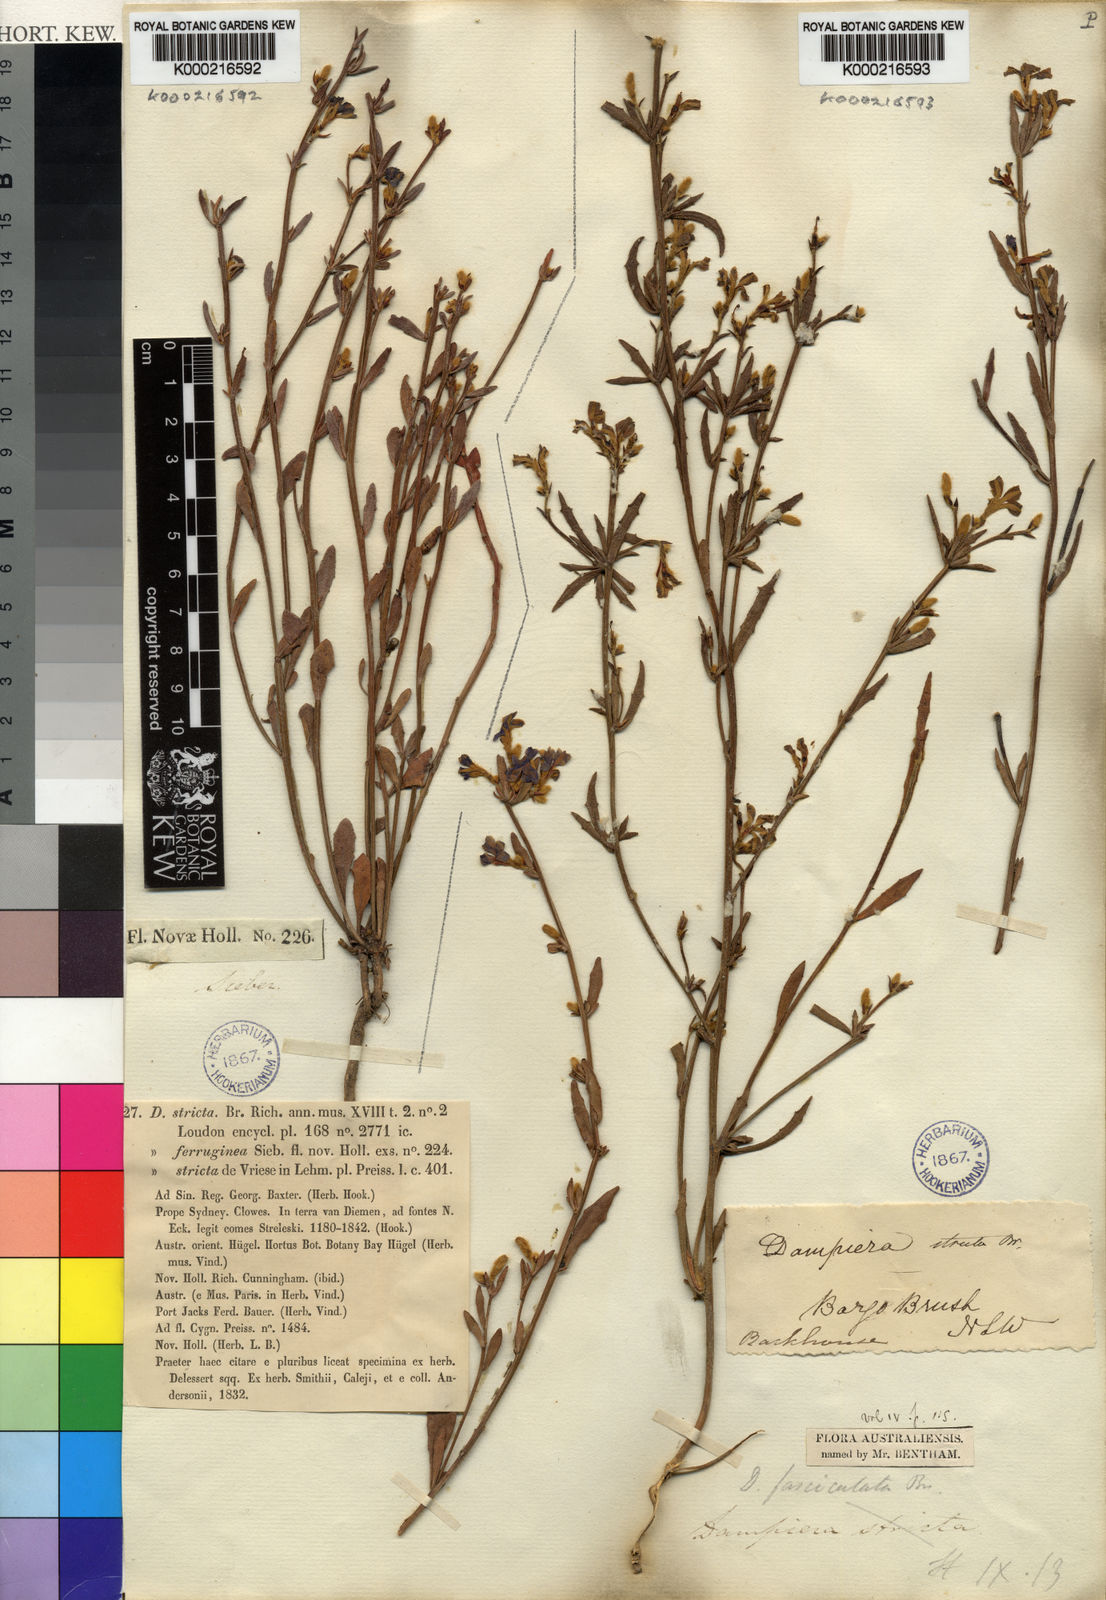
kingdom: Plantae
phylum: Tracheophyta
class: Magnoliopsida
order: Asterales
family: Goodeniaceae
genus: Dampiera
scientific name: Dampiera stricta
